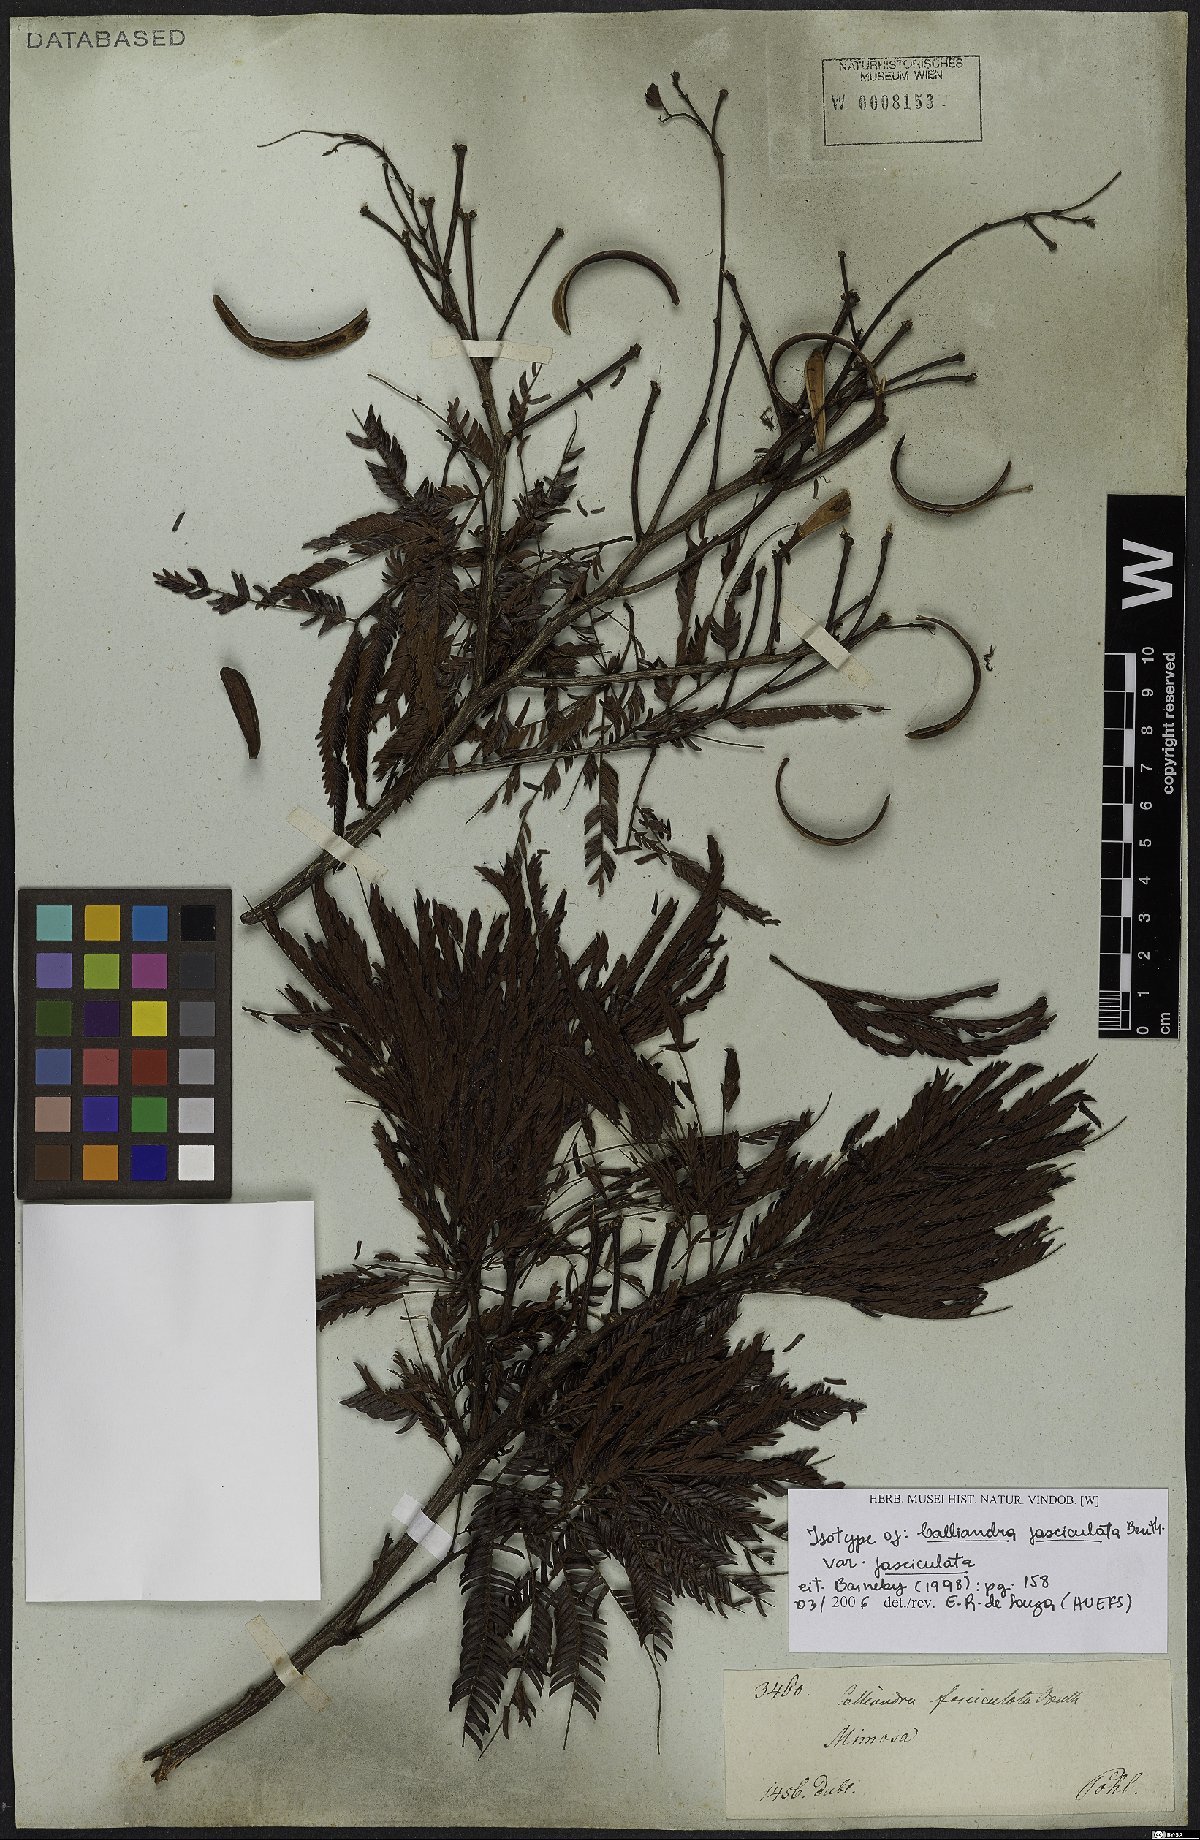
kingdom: Plantae
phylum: Tracheophyta
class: Magnoliopsida
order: Fabales
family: Fabaceae
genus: Calliandra
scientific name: Calliandra fasciculata
